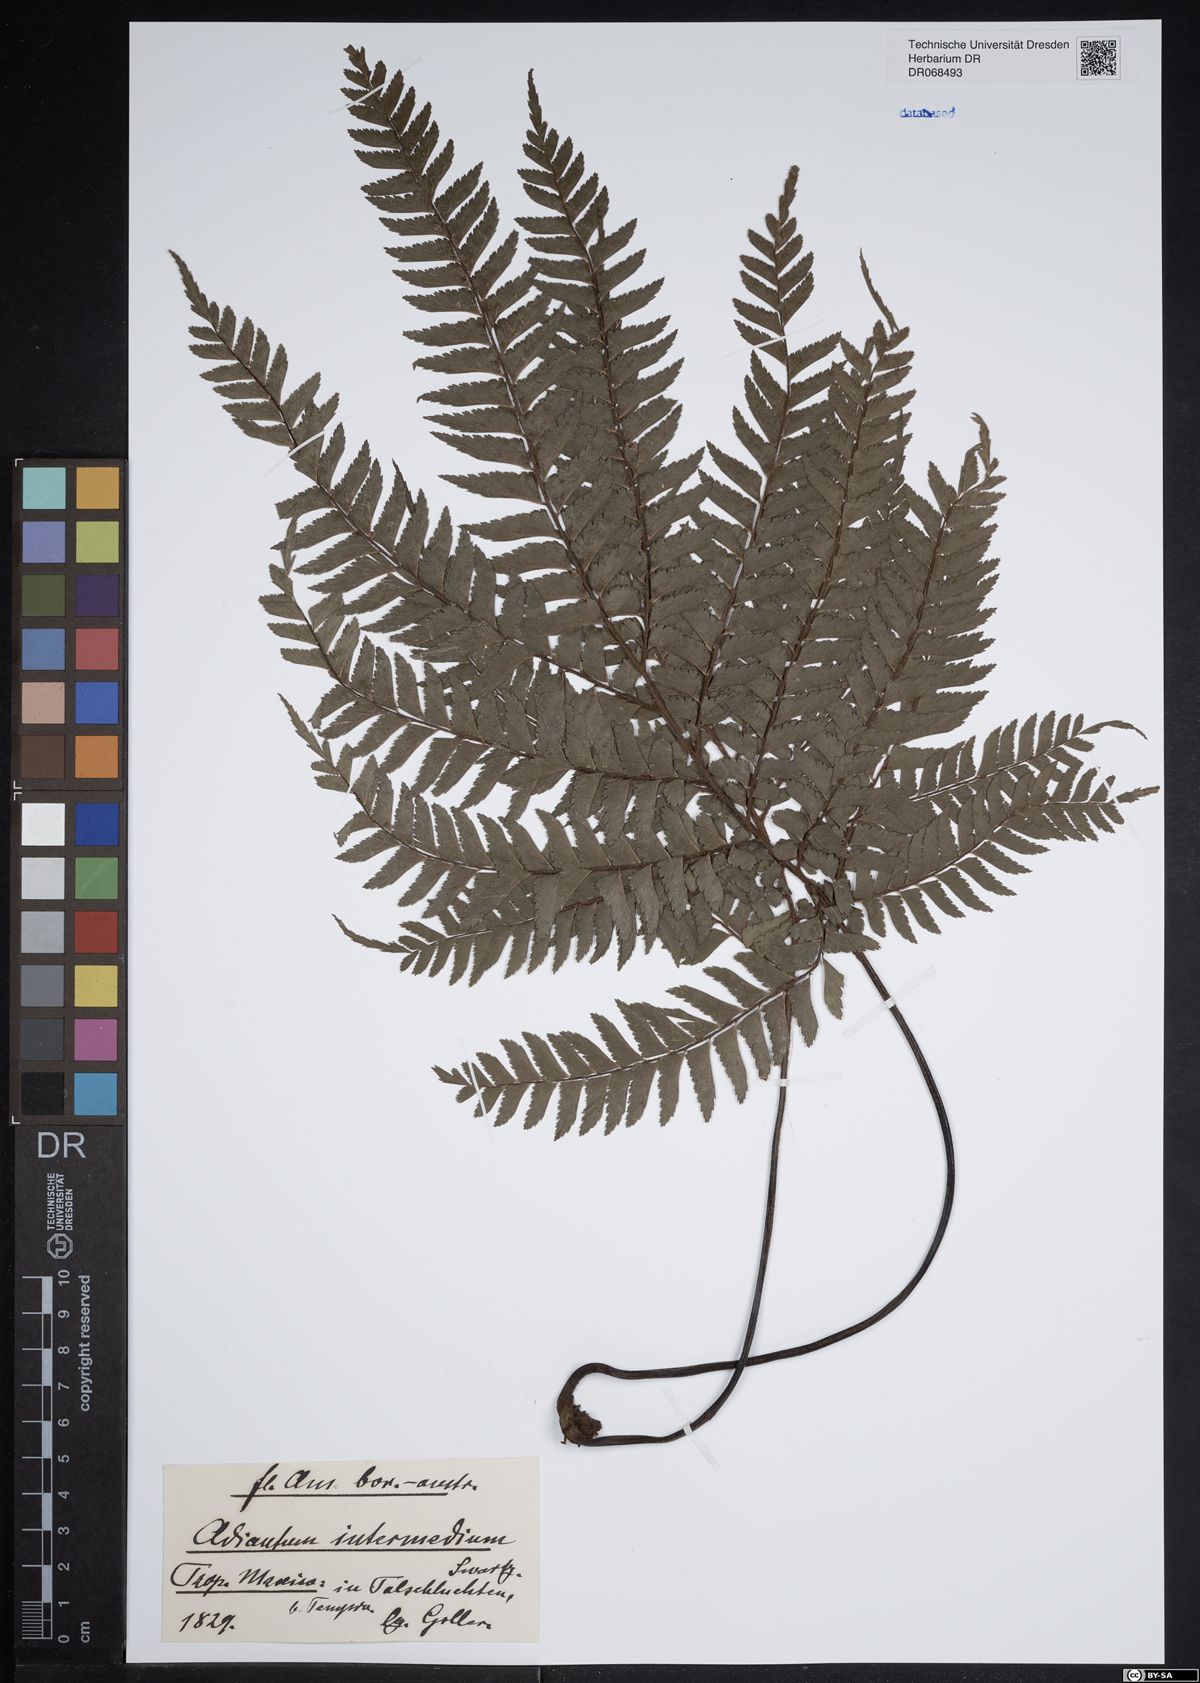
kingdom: Plantae
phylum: Tracheophyta
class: Polypodiopsida
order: Polypodiales
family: Pteridaceae
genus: Adiantum
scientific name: Adiantum intermedium
